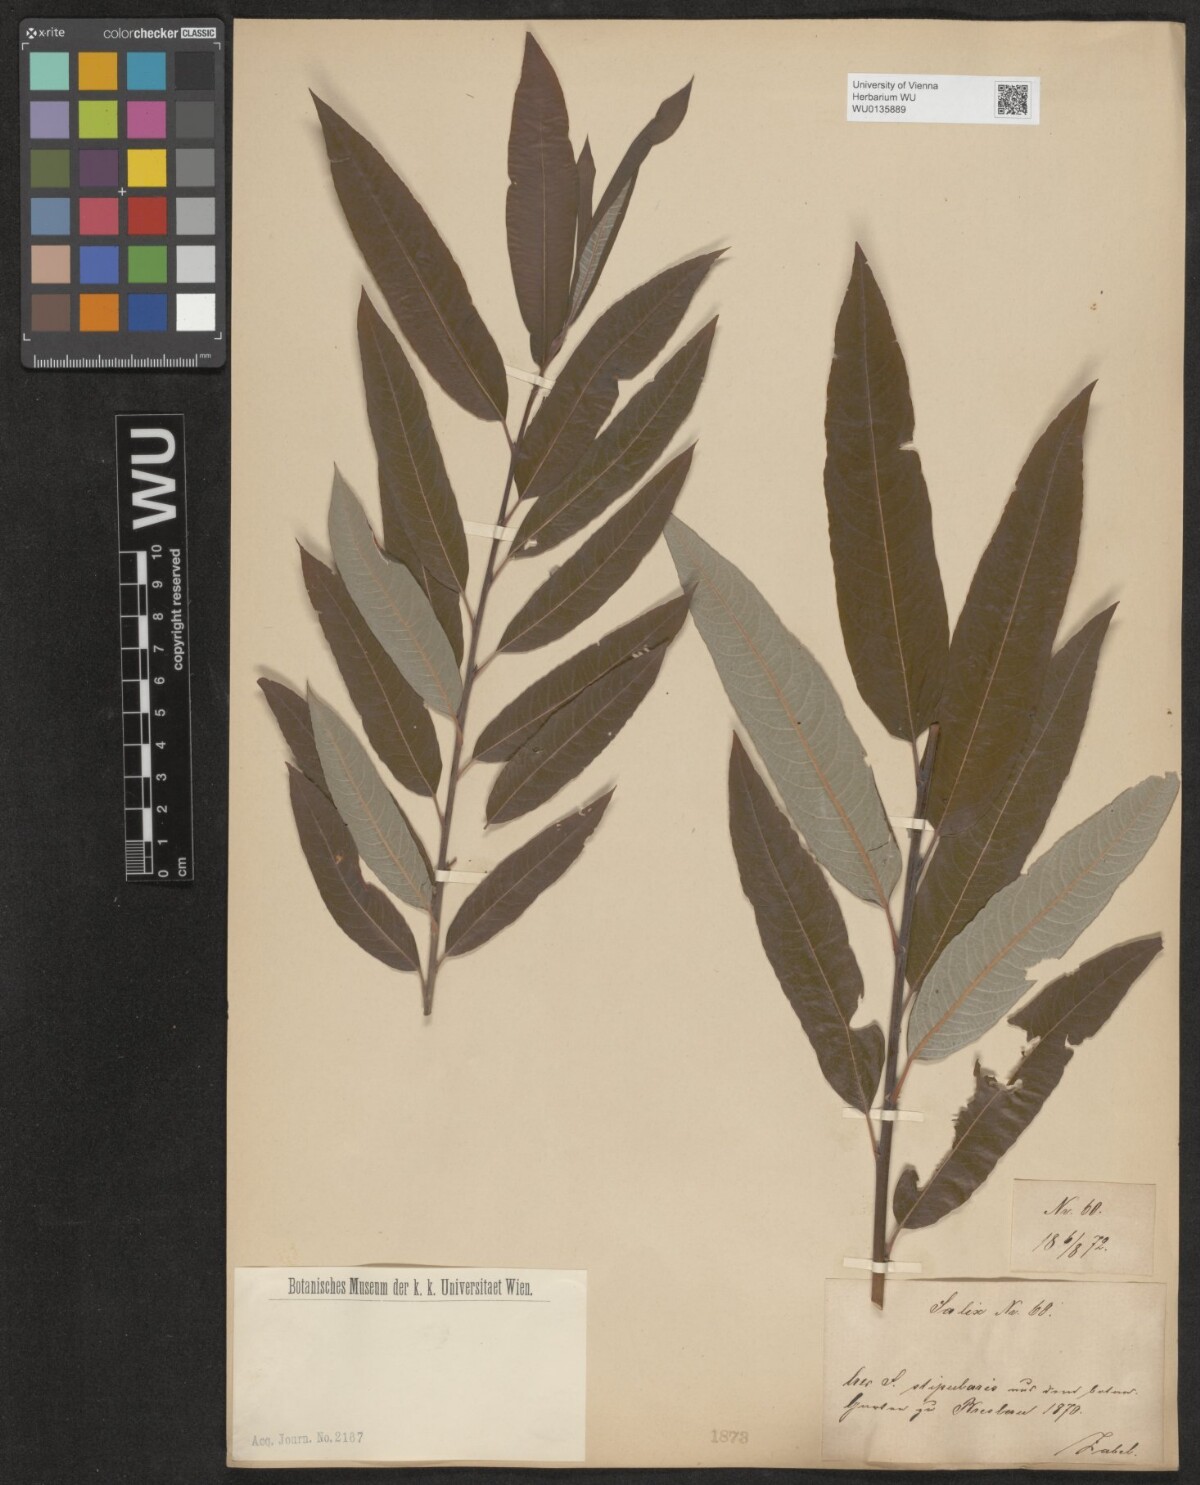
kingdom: Plantae
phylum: Tracheophyta
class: Magnoliopsida
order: Malpighiales
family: Salicaceae
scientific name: Salicaceae
